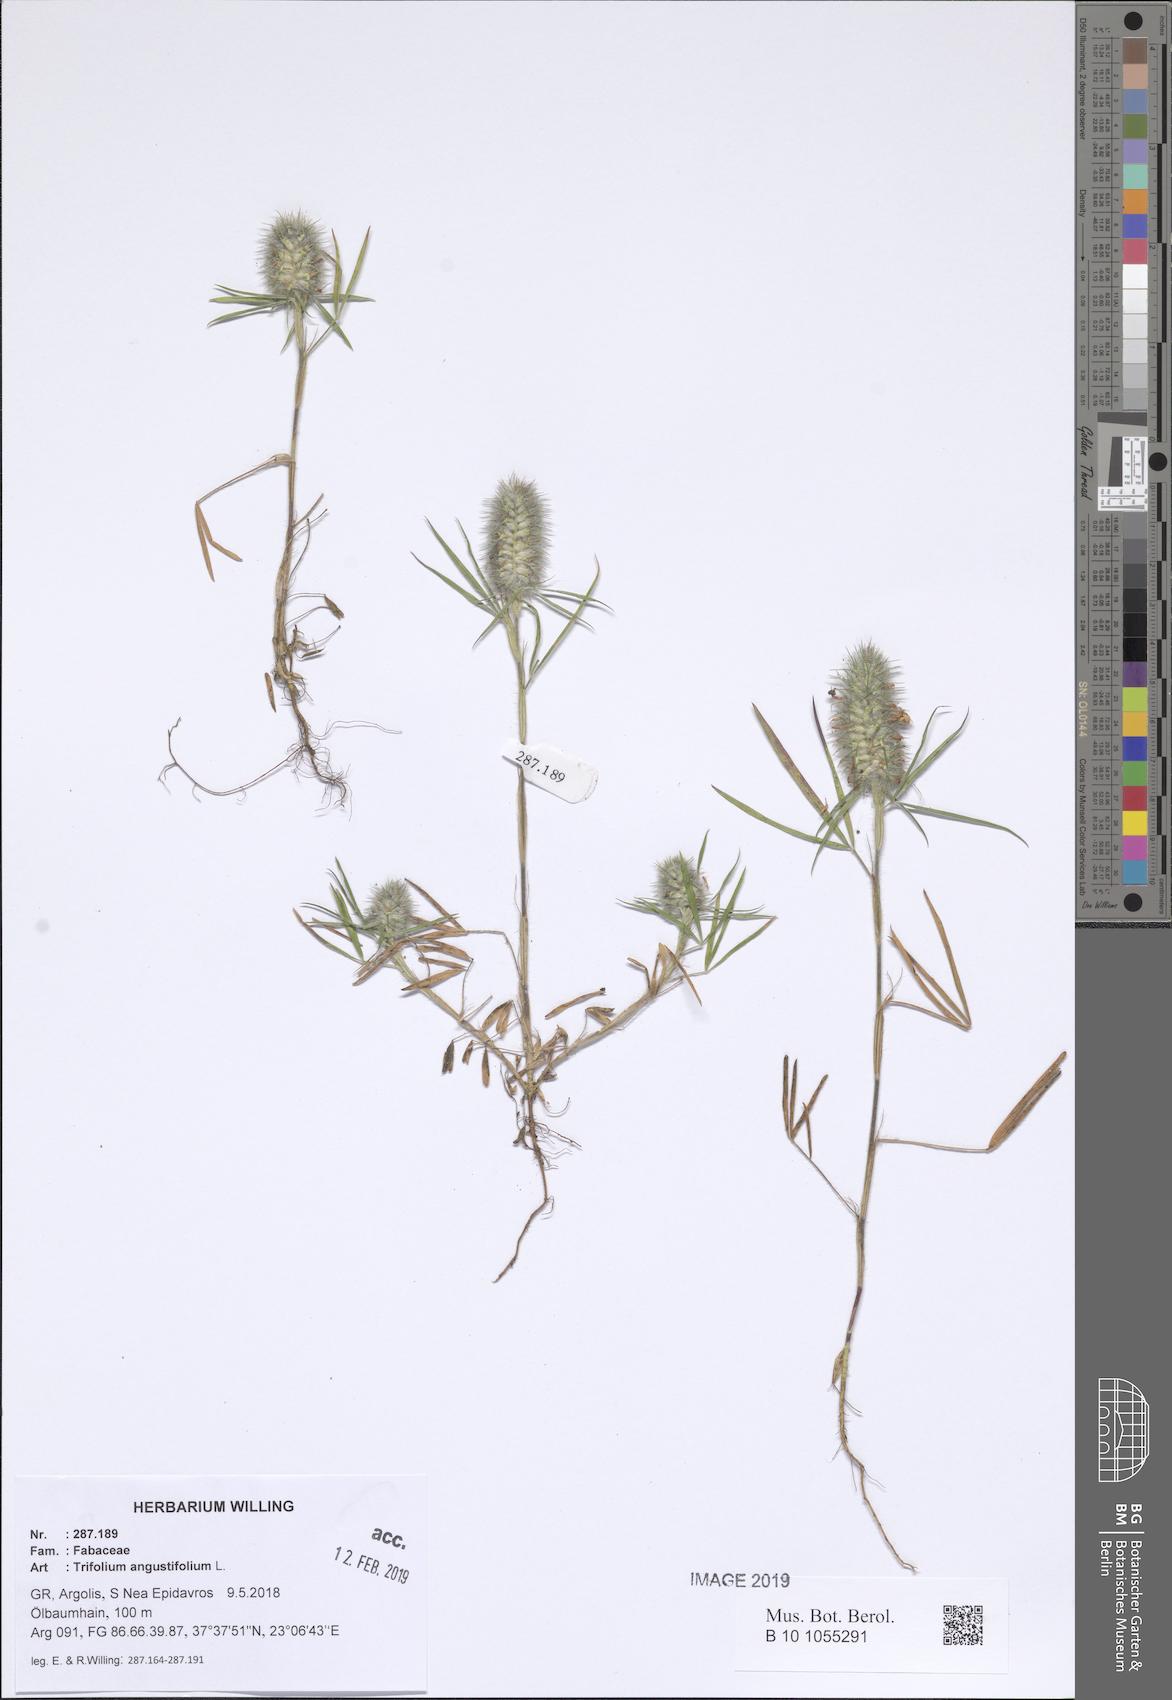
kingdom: Plantae
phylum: Tracheophyta
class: Magnoliopsida
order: Fabales
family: Fabaceae
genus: Trifolium
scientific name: Trifolium angustifolium
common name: Narrow clover
